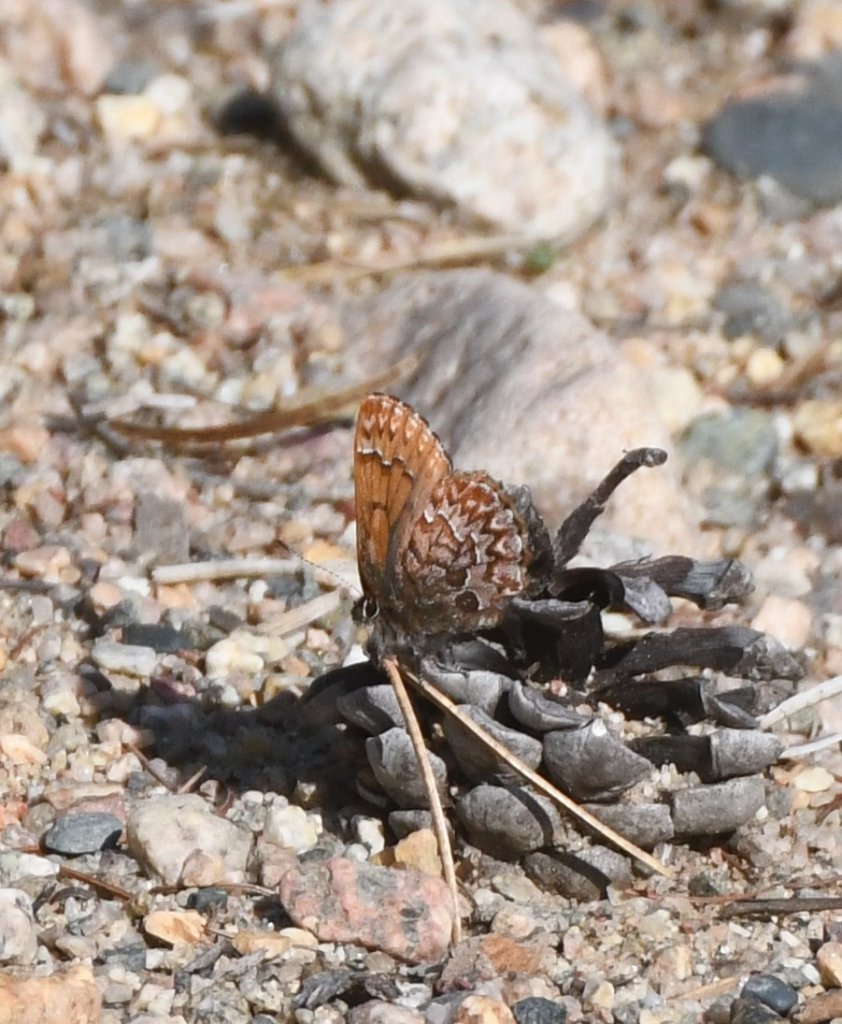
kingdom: Animalia
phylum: Arthropoda
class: Insecta
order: Lepidoptera
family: Lycaenidae
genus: Incisalia
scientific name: Incisalia eryphon
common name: Western Pine Elfin
